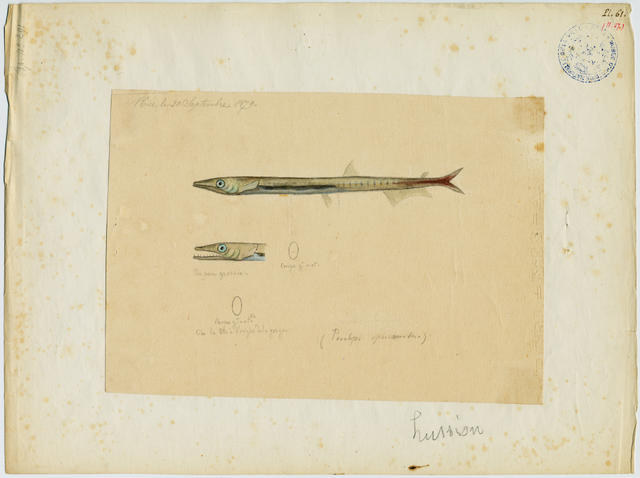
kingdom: Animalia
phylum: Chordata
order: Aulopiformes
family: Paralepididae
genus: Lestidiops
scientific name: Lestidiops sphyrenoides
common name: Barracudina
